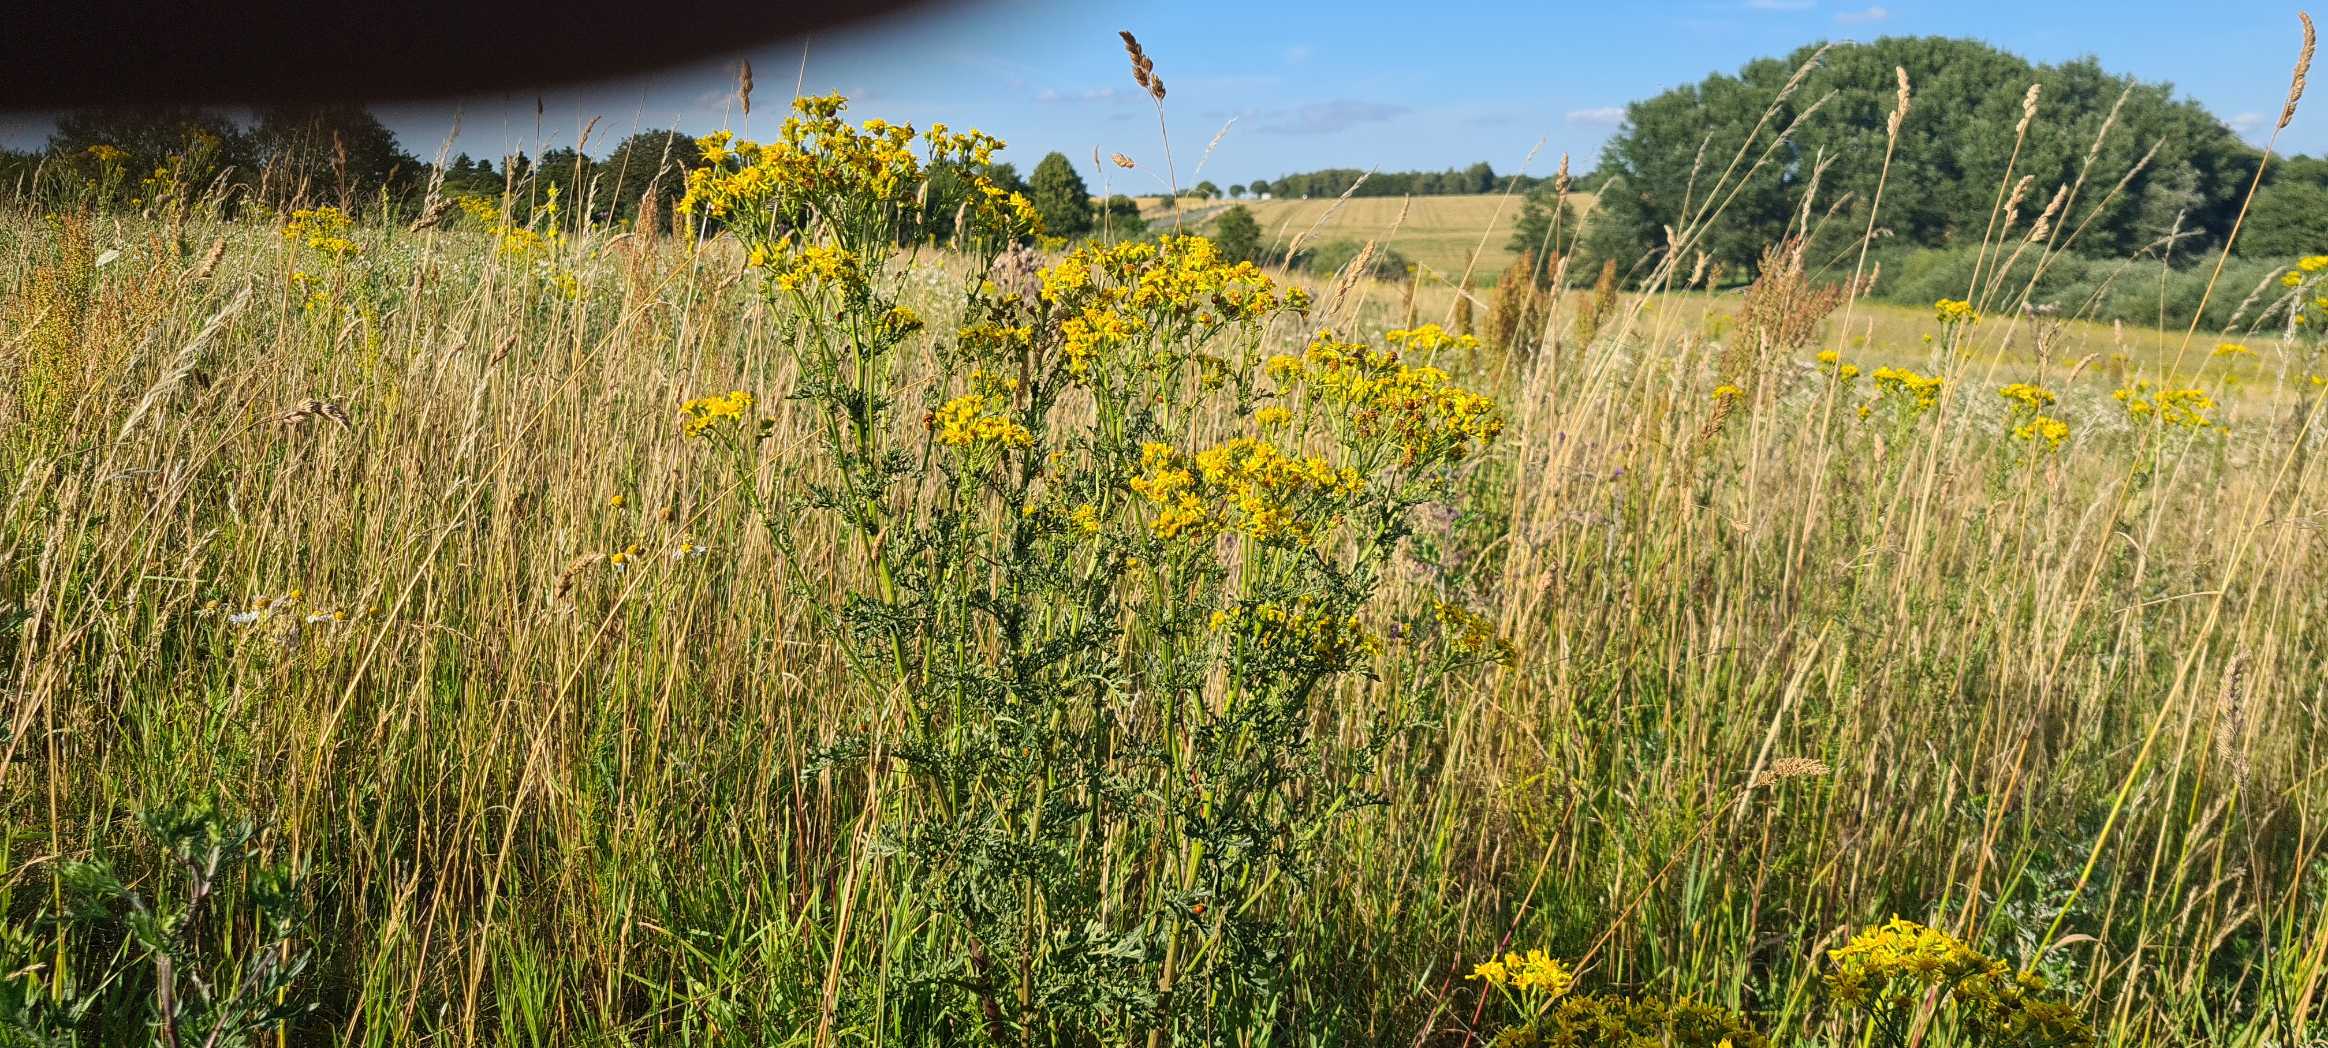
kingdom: Plantae
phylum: Tracheophyta
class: Magnoliopsida
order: Rosales
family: Rosaceae
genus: Rubus
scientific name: Rubus caesius
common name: Korbær
